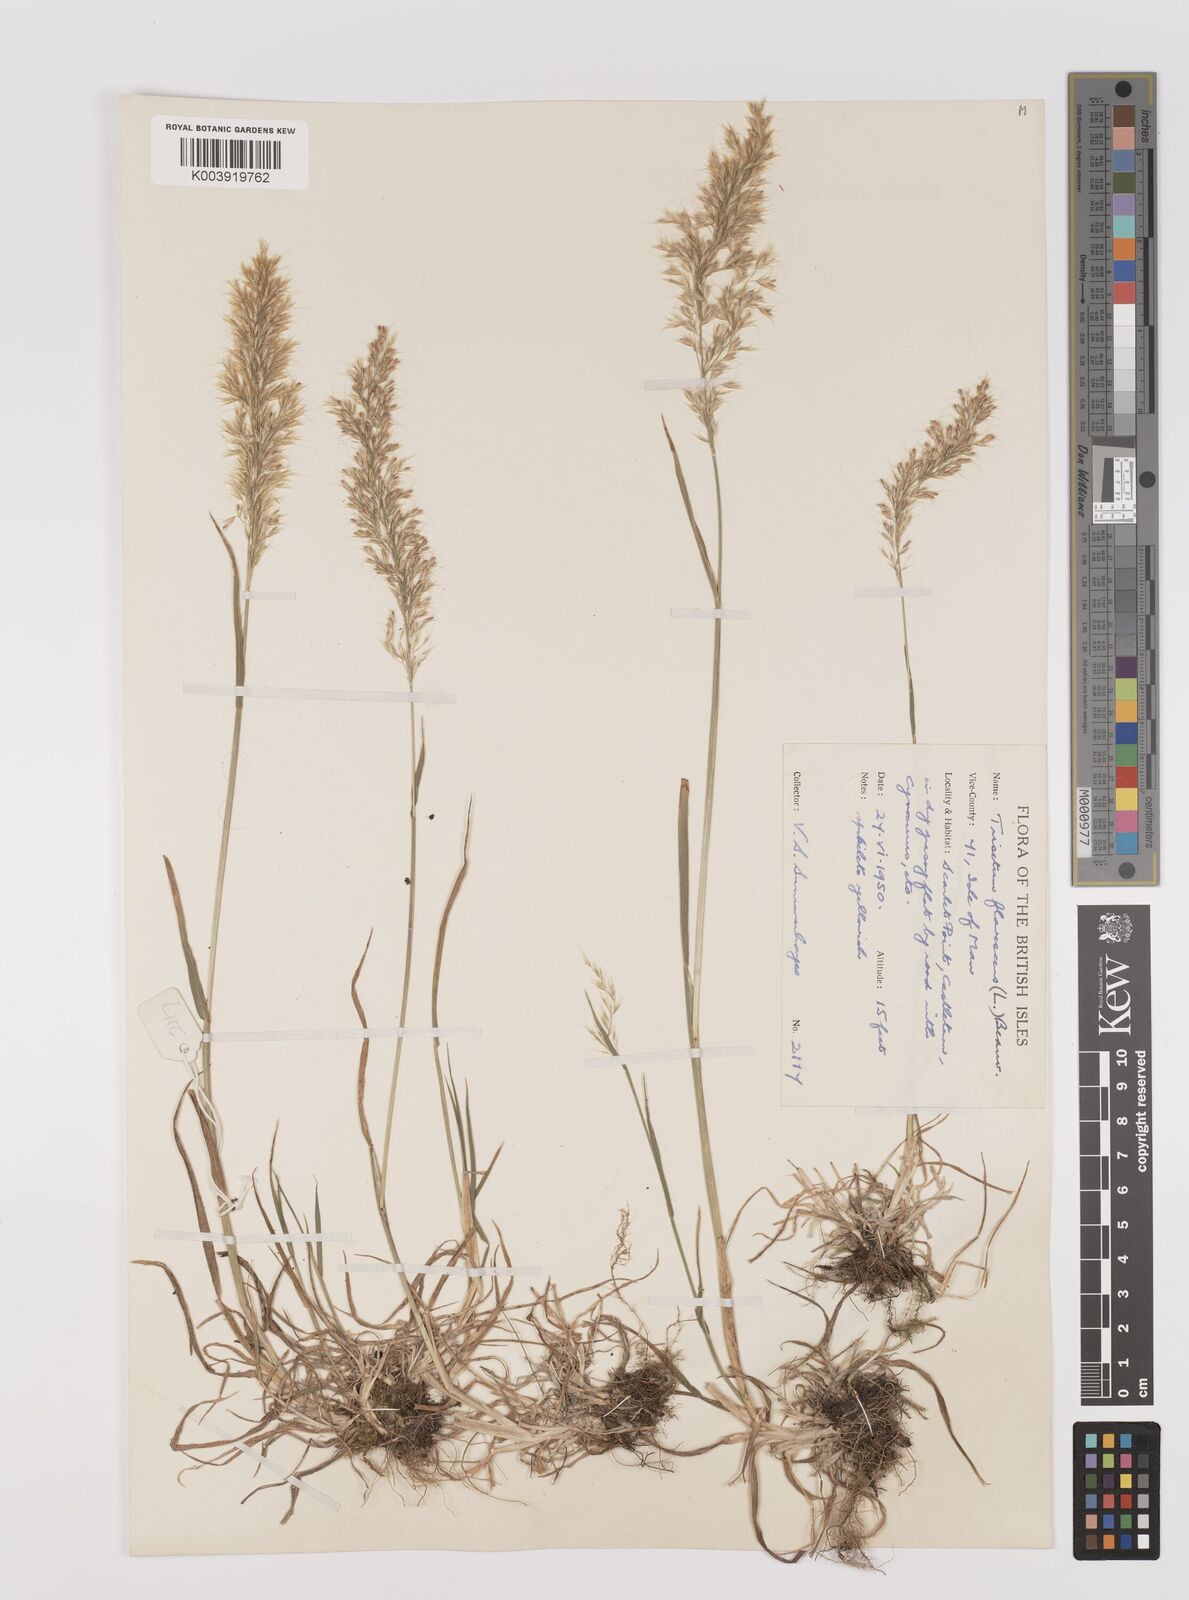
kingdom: Plantae
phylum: Tracheophyta
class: Liliopsida
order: Poales
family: Poaceae
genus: Trisetum
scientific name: Trisetum flavescens
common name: Yellow oat-grass
